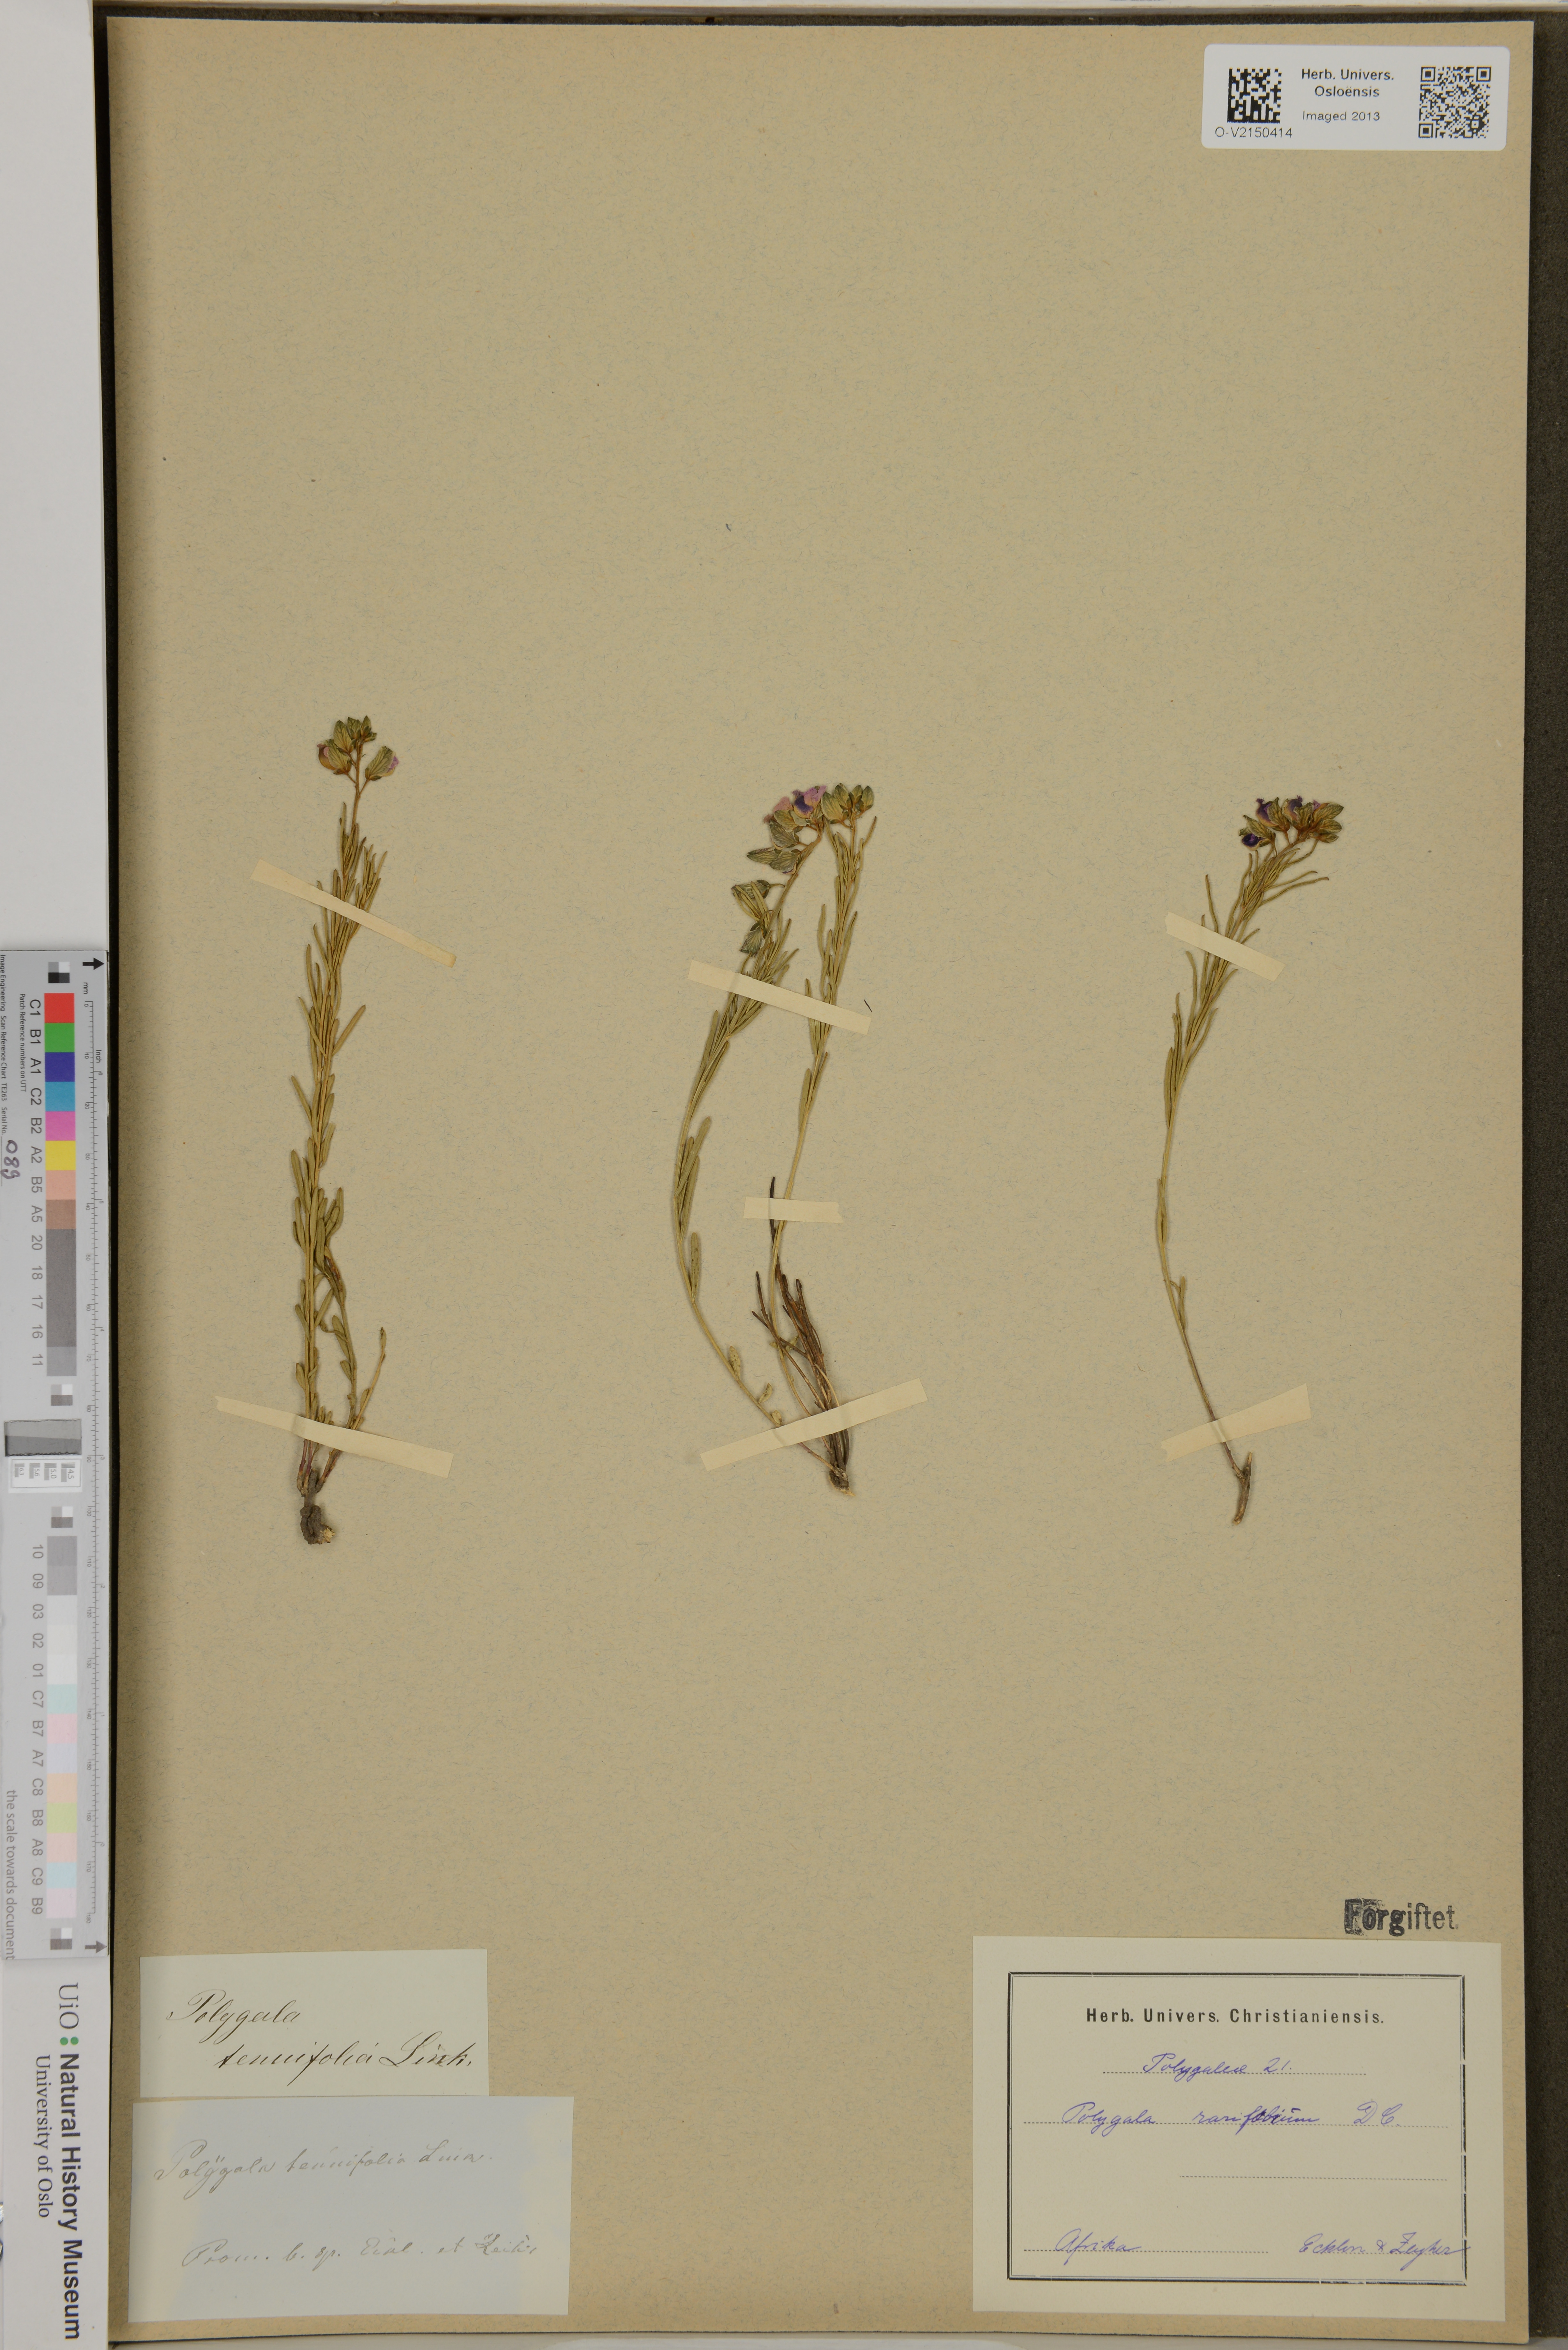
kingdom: Plantae
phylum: Tracheophyta
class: Magnoliopsida
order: Fabales
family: Polygalaceae
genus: Polygala
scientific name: Polygala rarifolia
